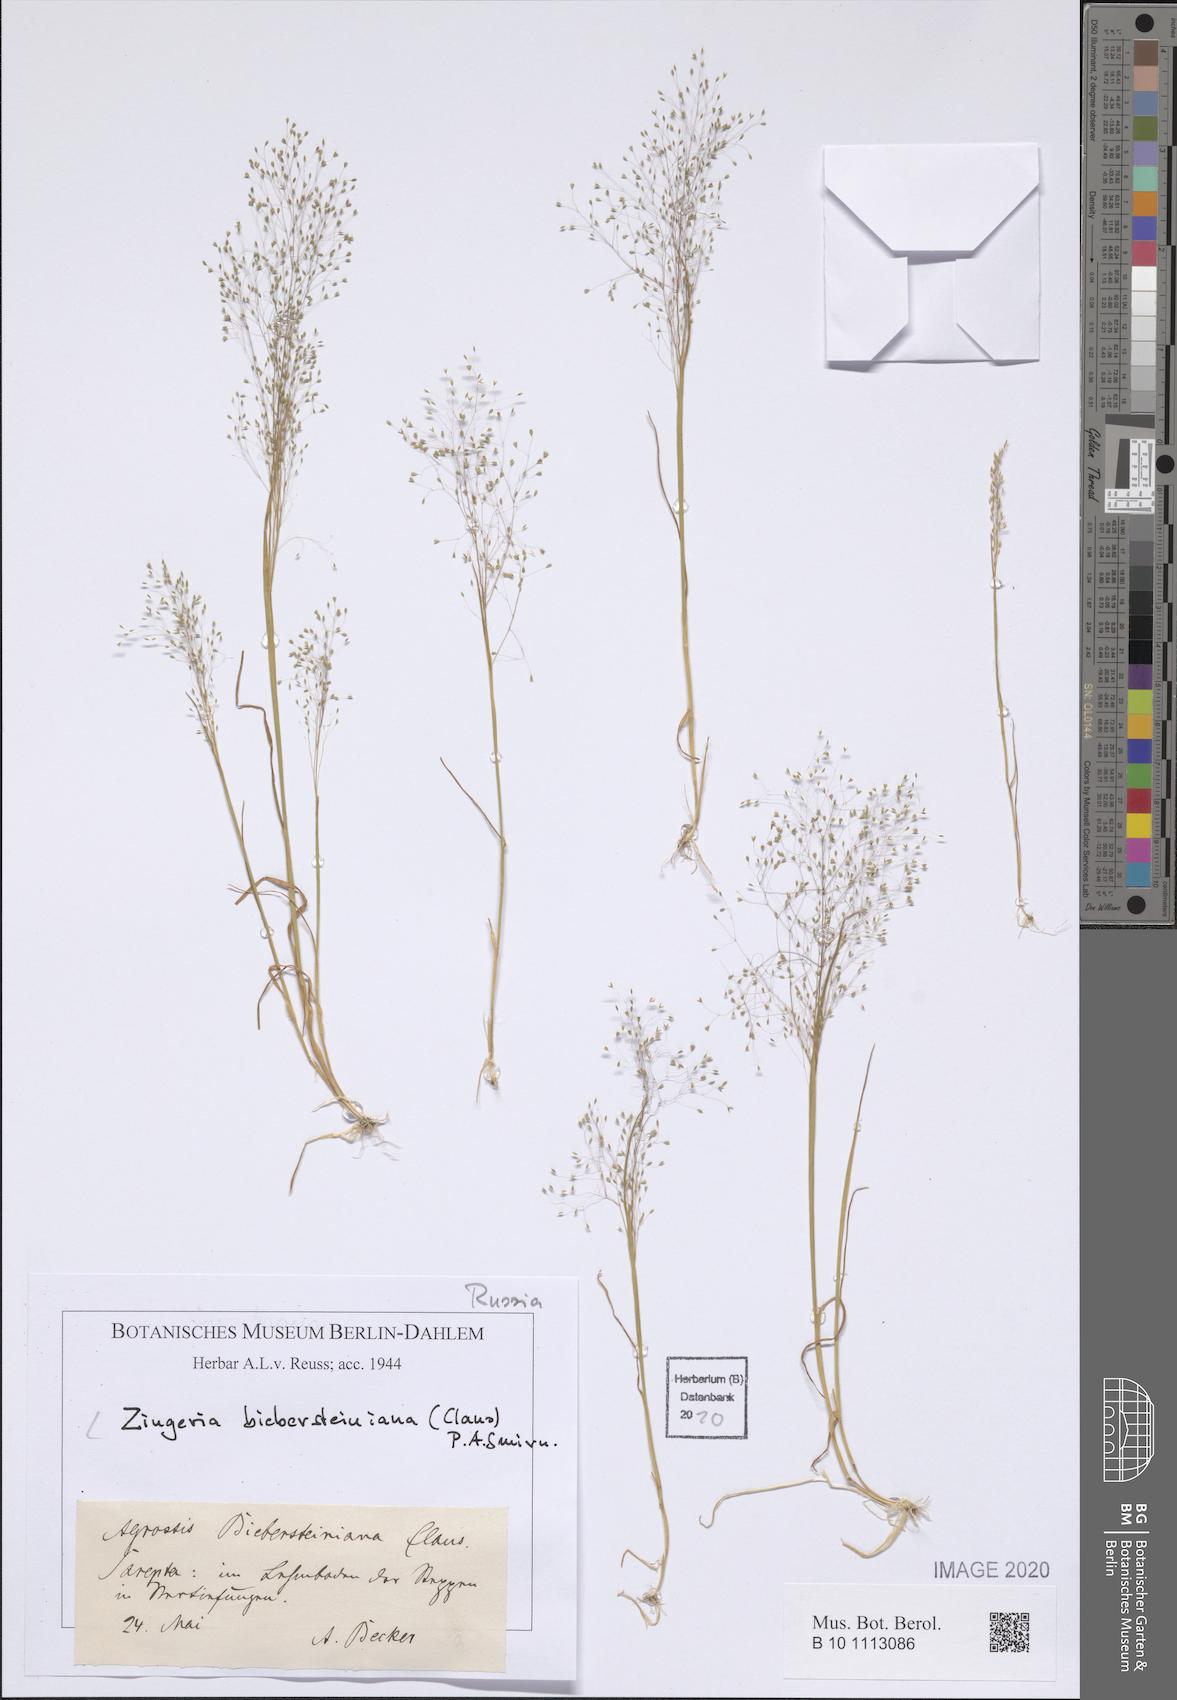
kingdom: Plantae
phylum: Tracheophyta
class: Liliopsida
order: Poales
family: Poaceae
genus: Colpodium
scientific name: Colpodium biebersteinianum
